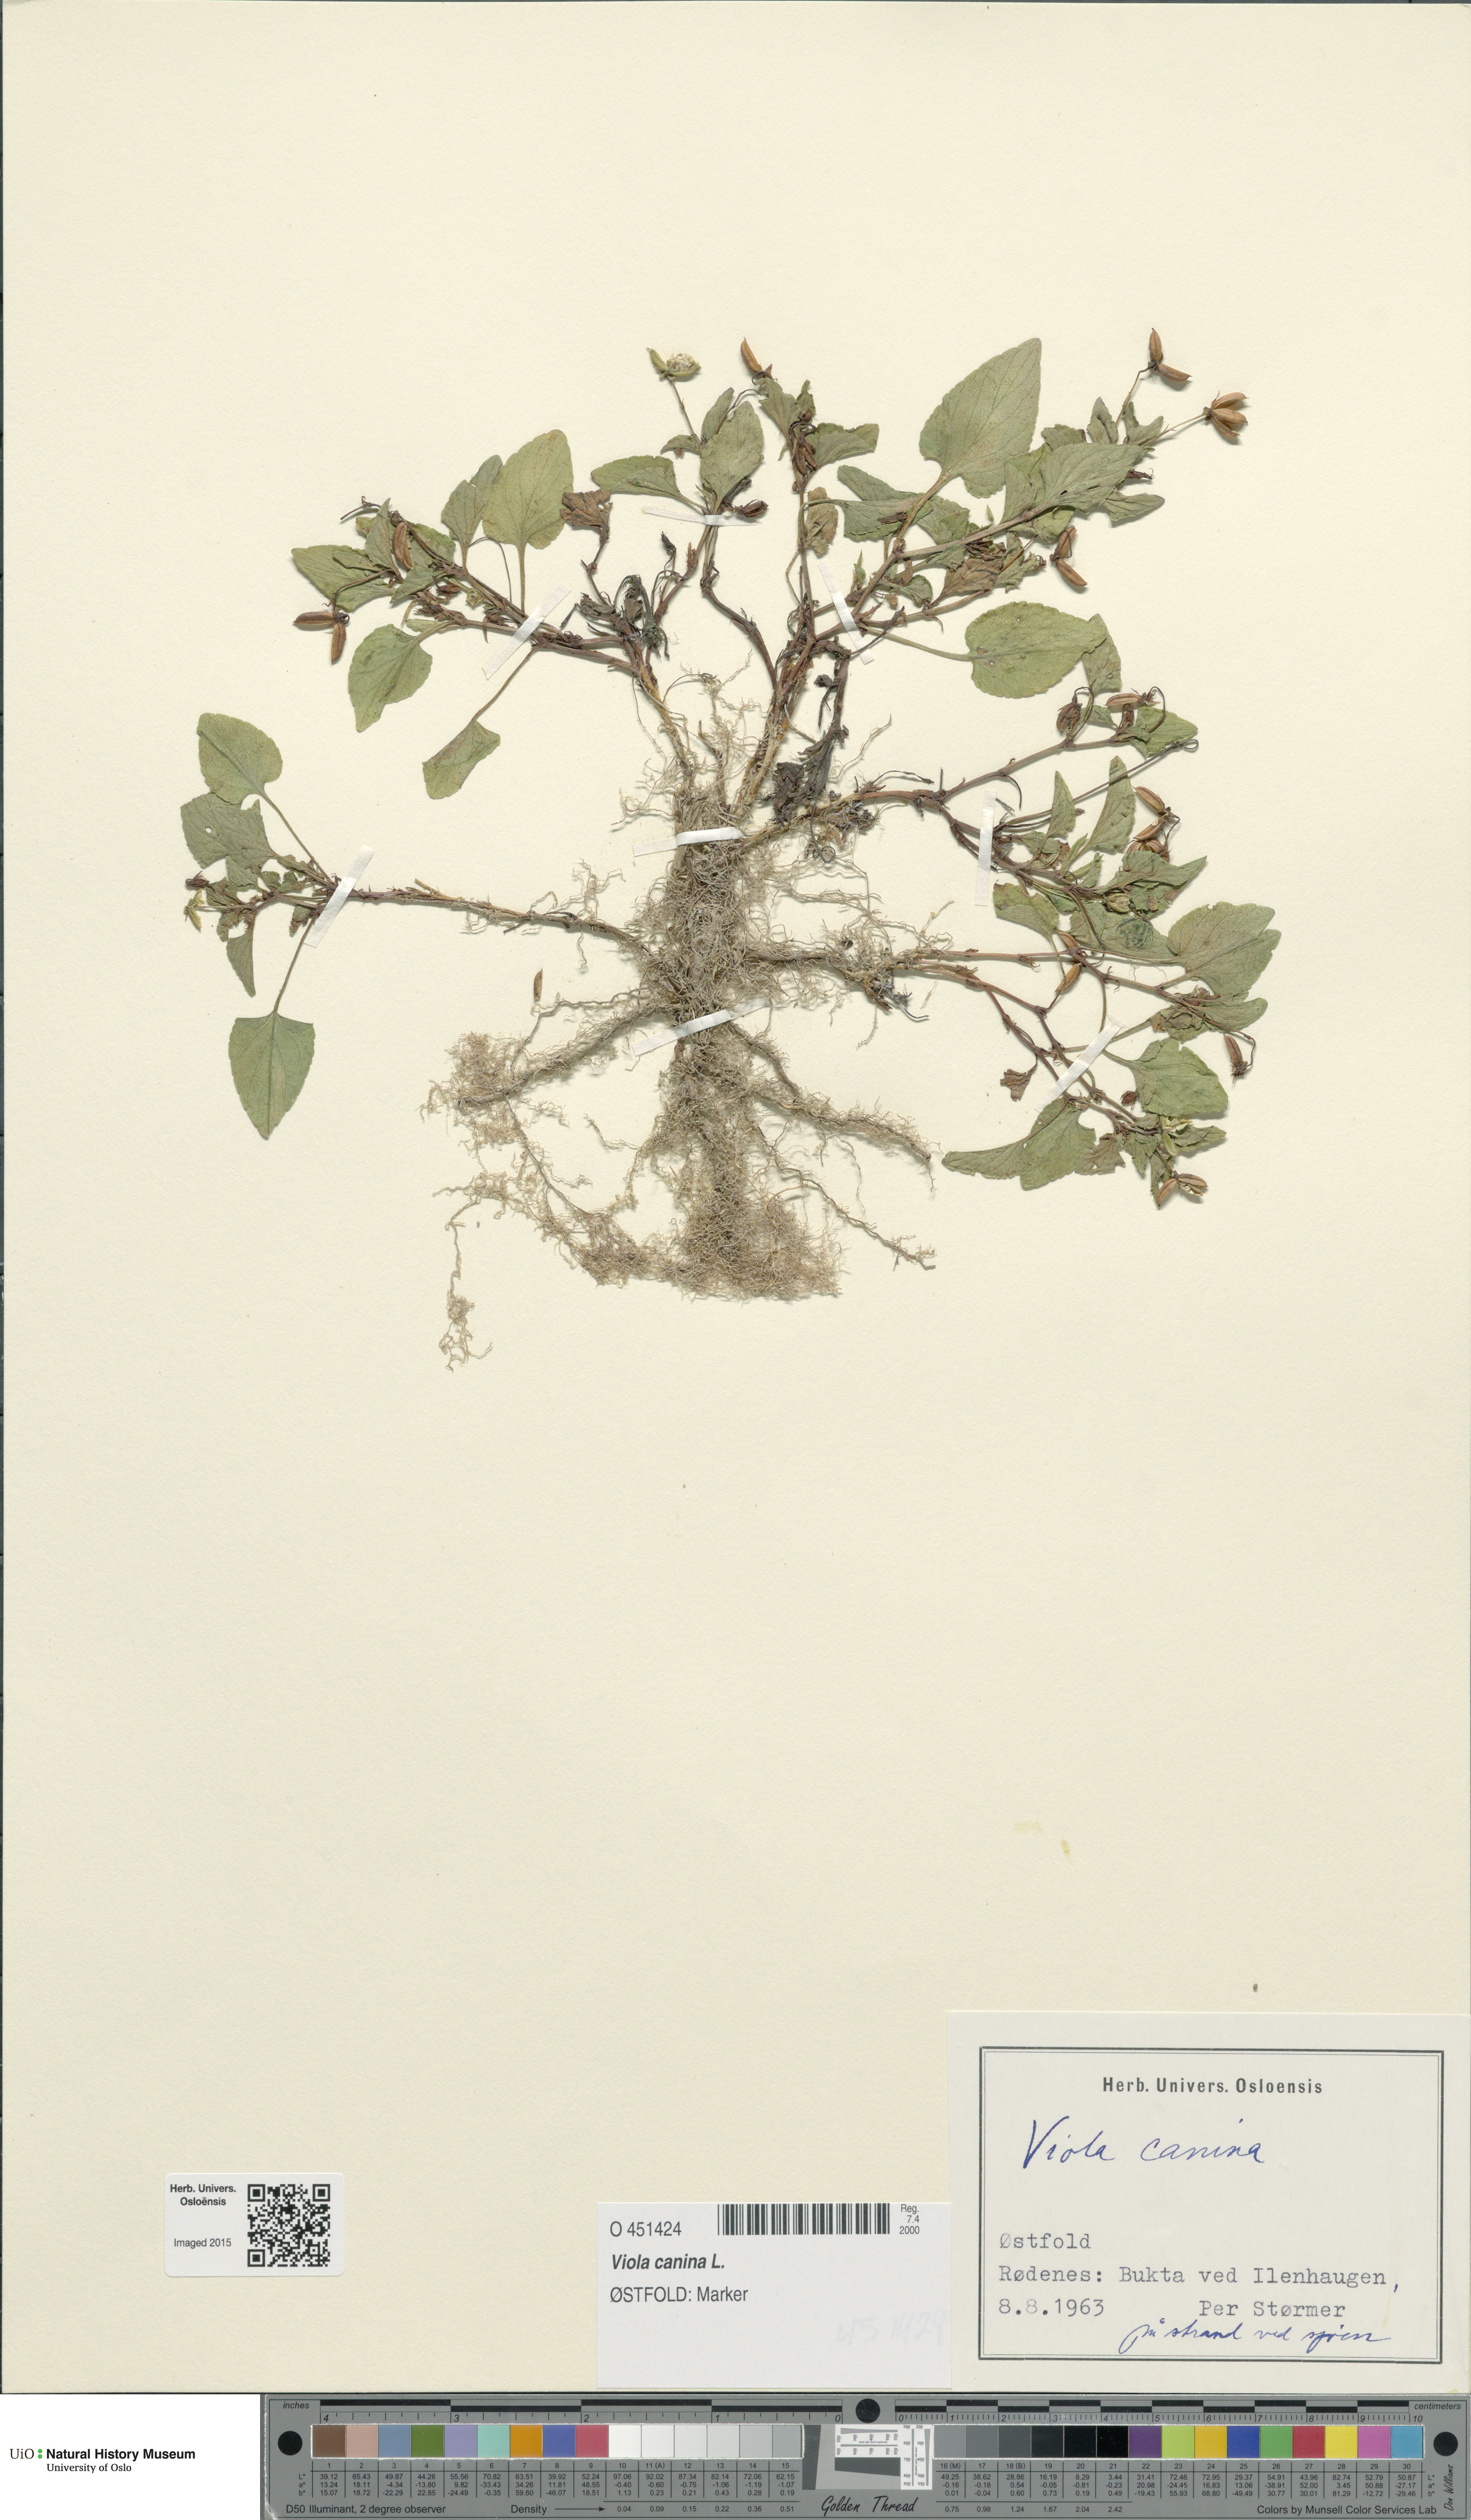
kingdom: Plantae
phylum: Tracheophyta
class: Magnoliopsida
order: Malpighiales
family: Violaceae
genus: Viola
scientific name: Viola canina
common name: Heath dog-violet
